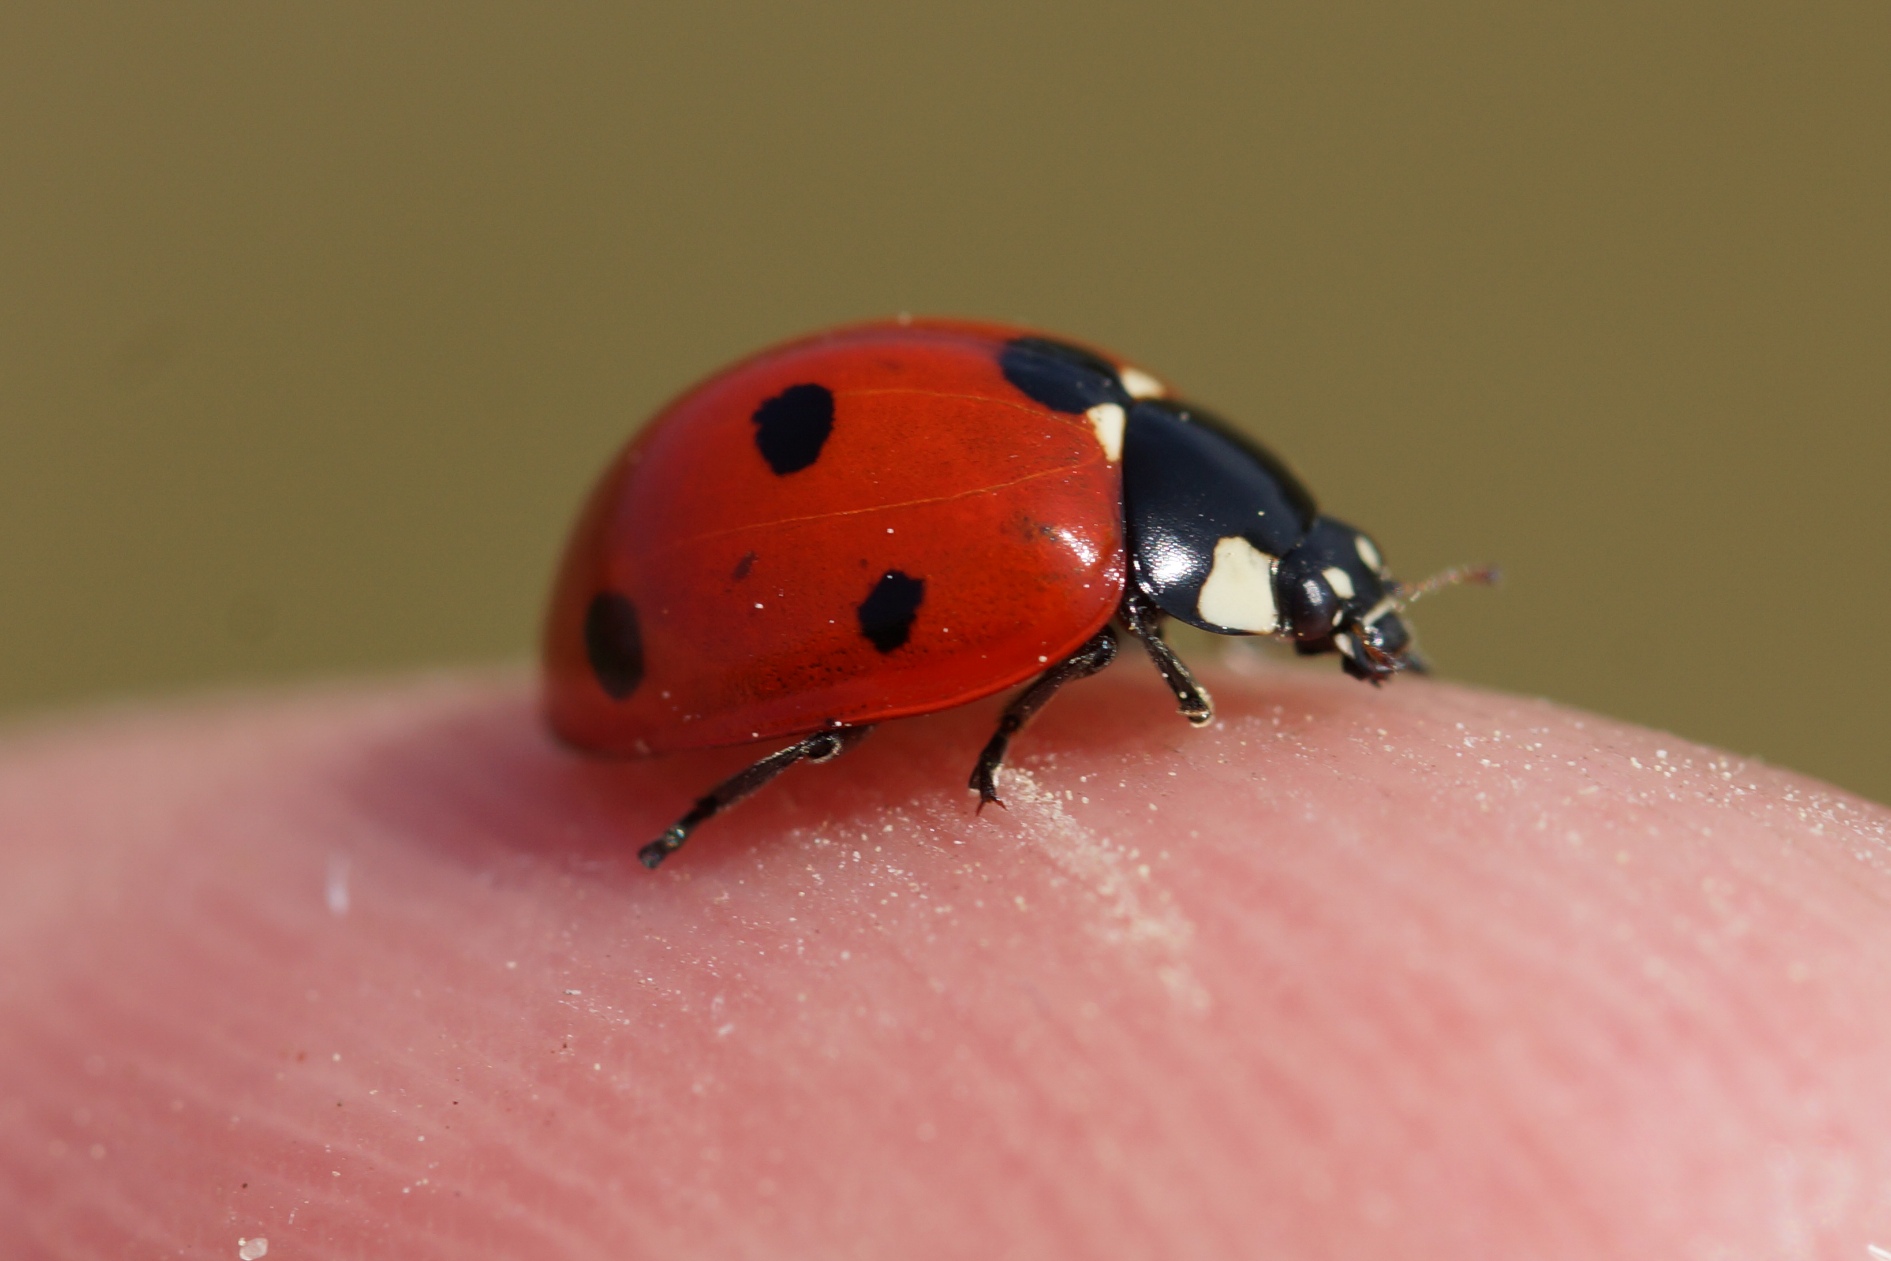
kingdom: Animalia
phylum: Arthropoda
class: Insecta
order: Coleoptera
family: Coccinellidae
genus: Coccinella
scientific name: Coccinella septempunctata
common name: Syvplettet mariehøne
